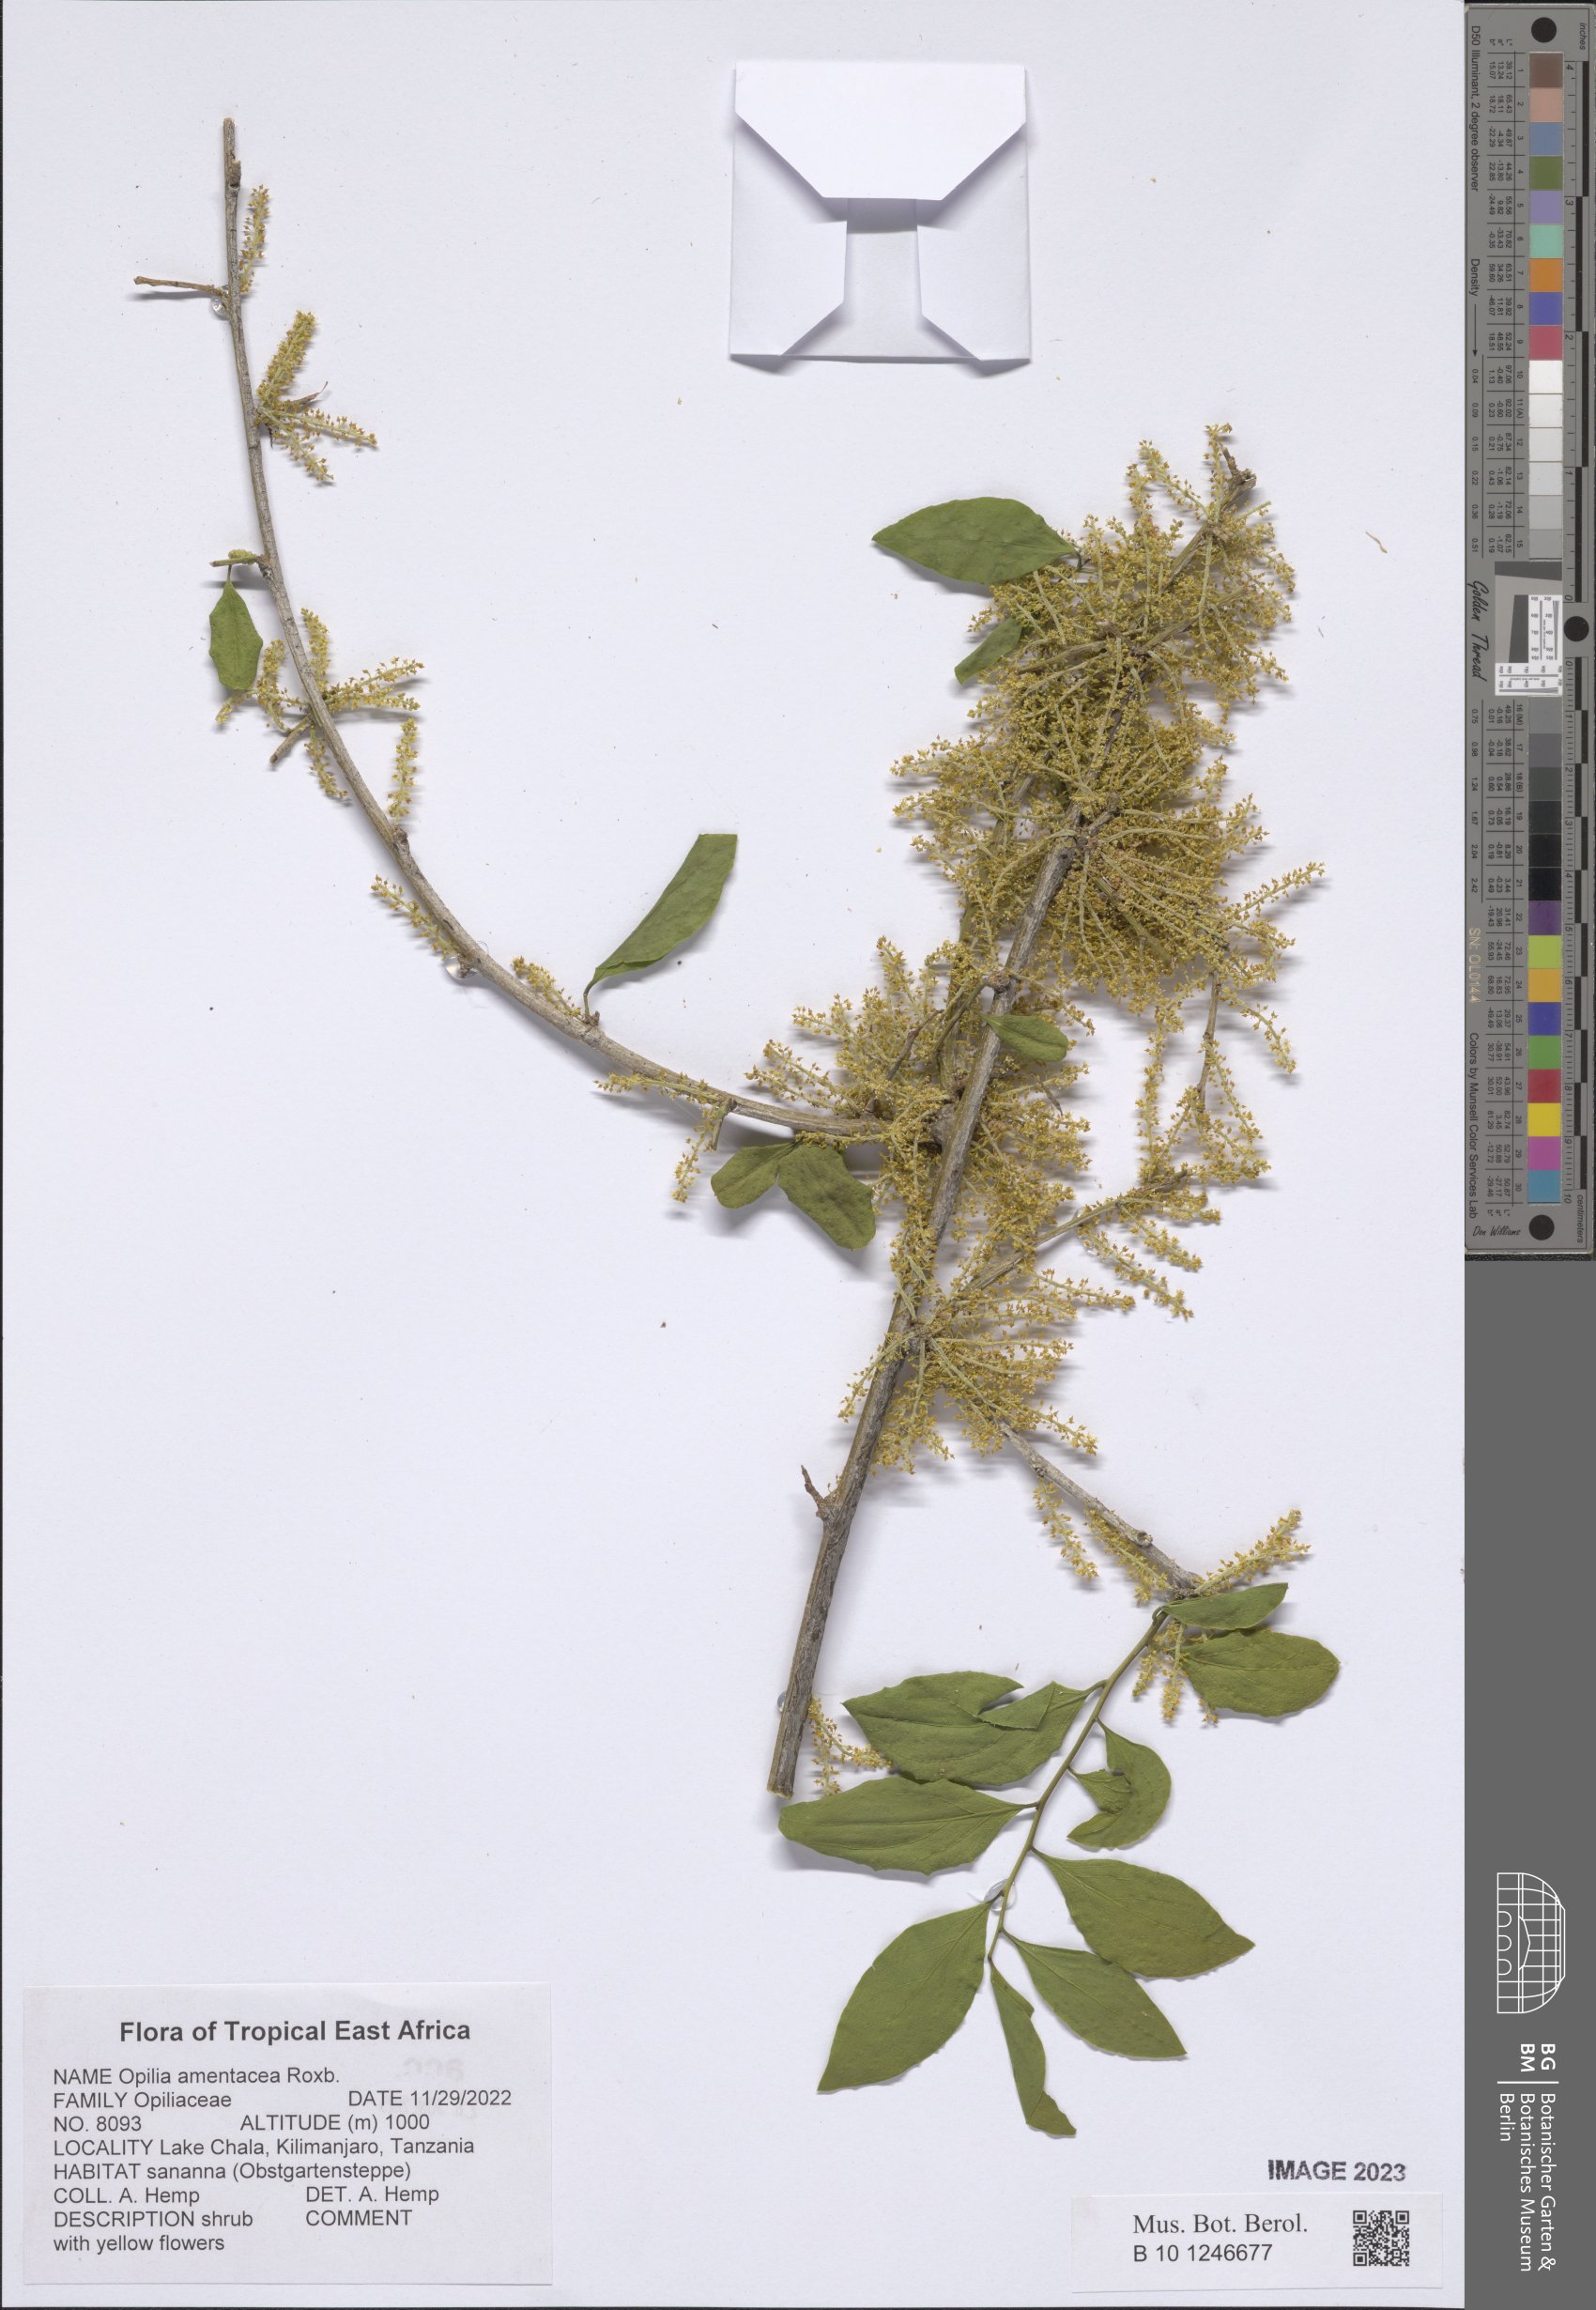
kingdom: Plantae
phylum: Tracheophyta
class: Magnoliopsida
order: Santalales
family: Opiliaceae
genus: Opilia
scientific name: Opilia amentacea
